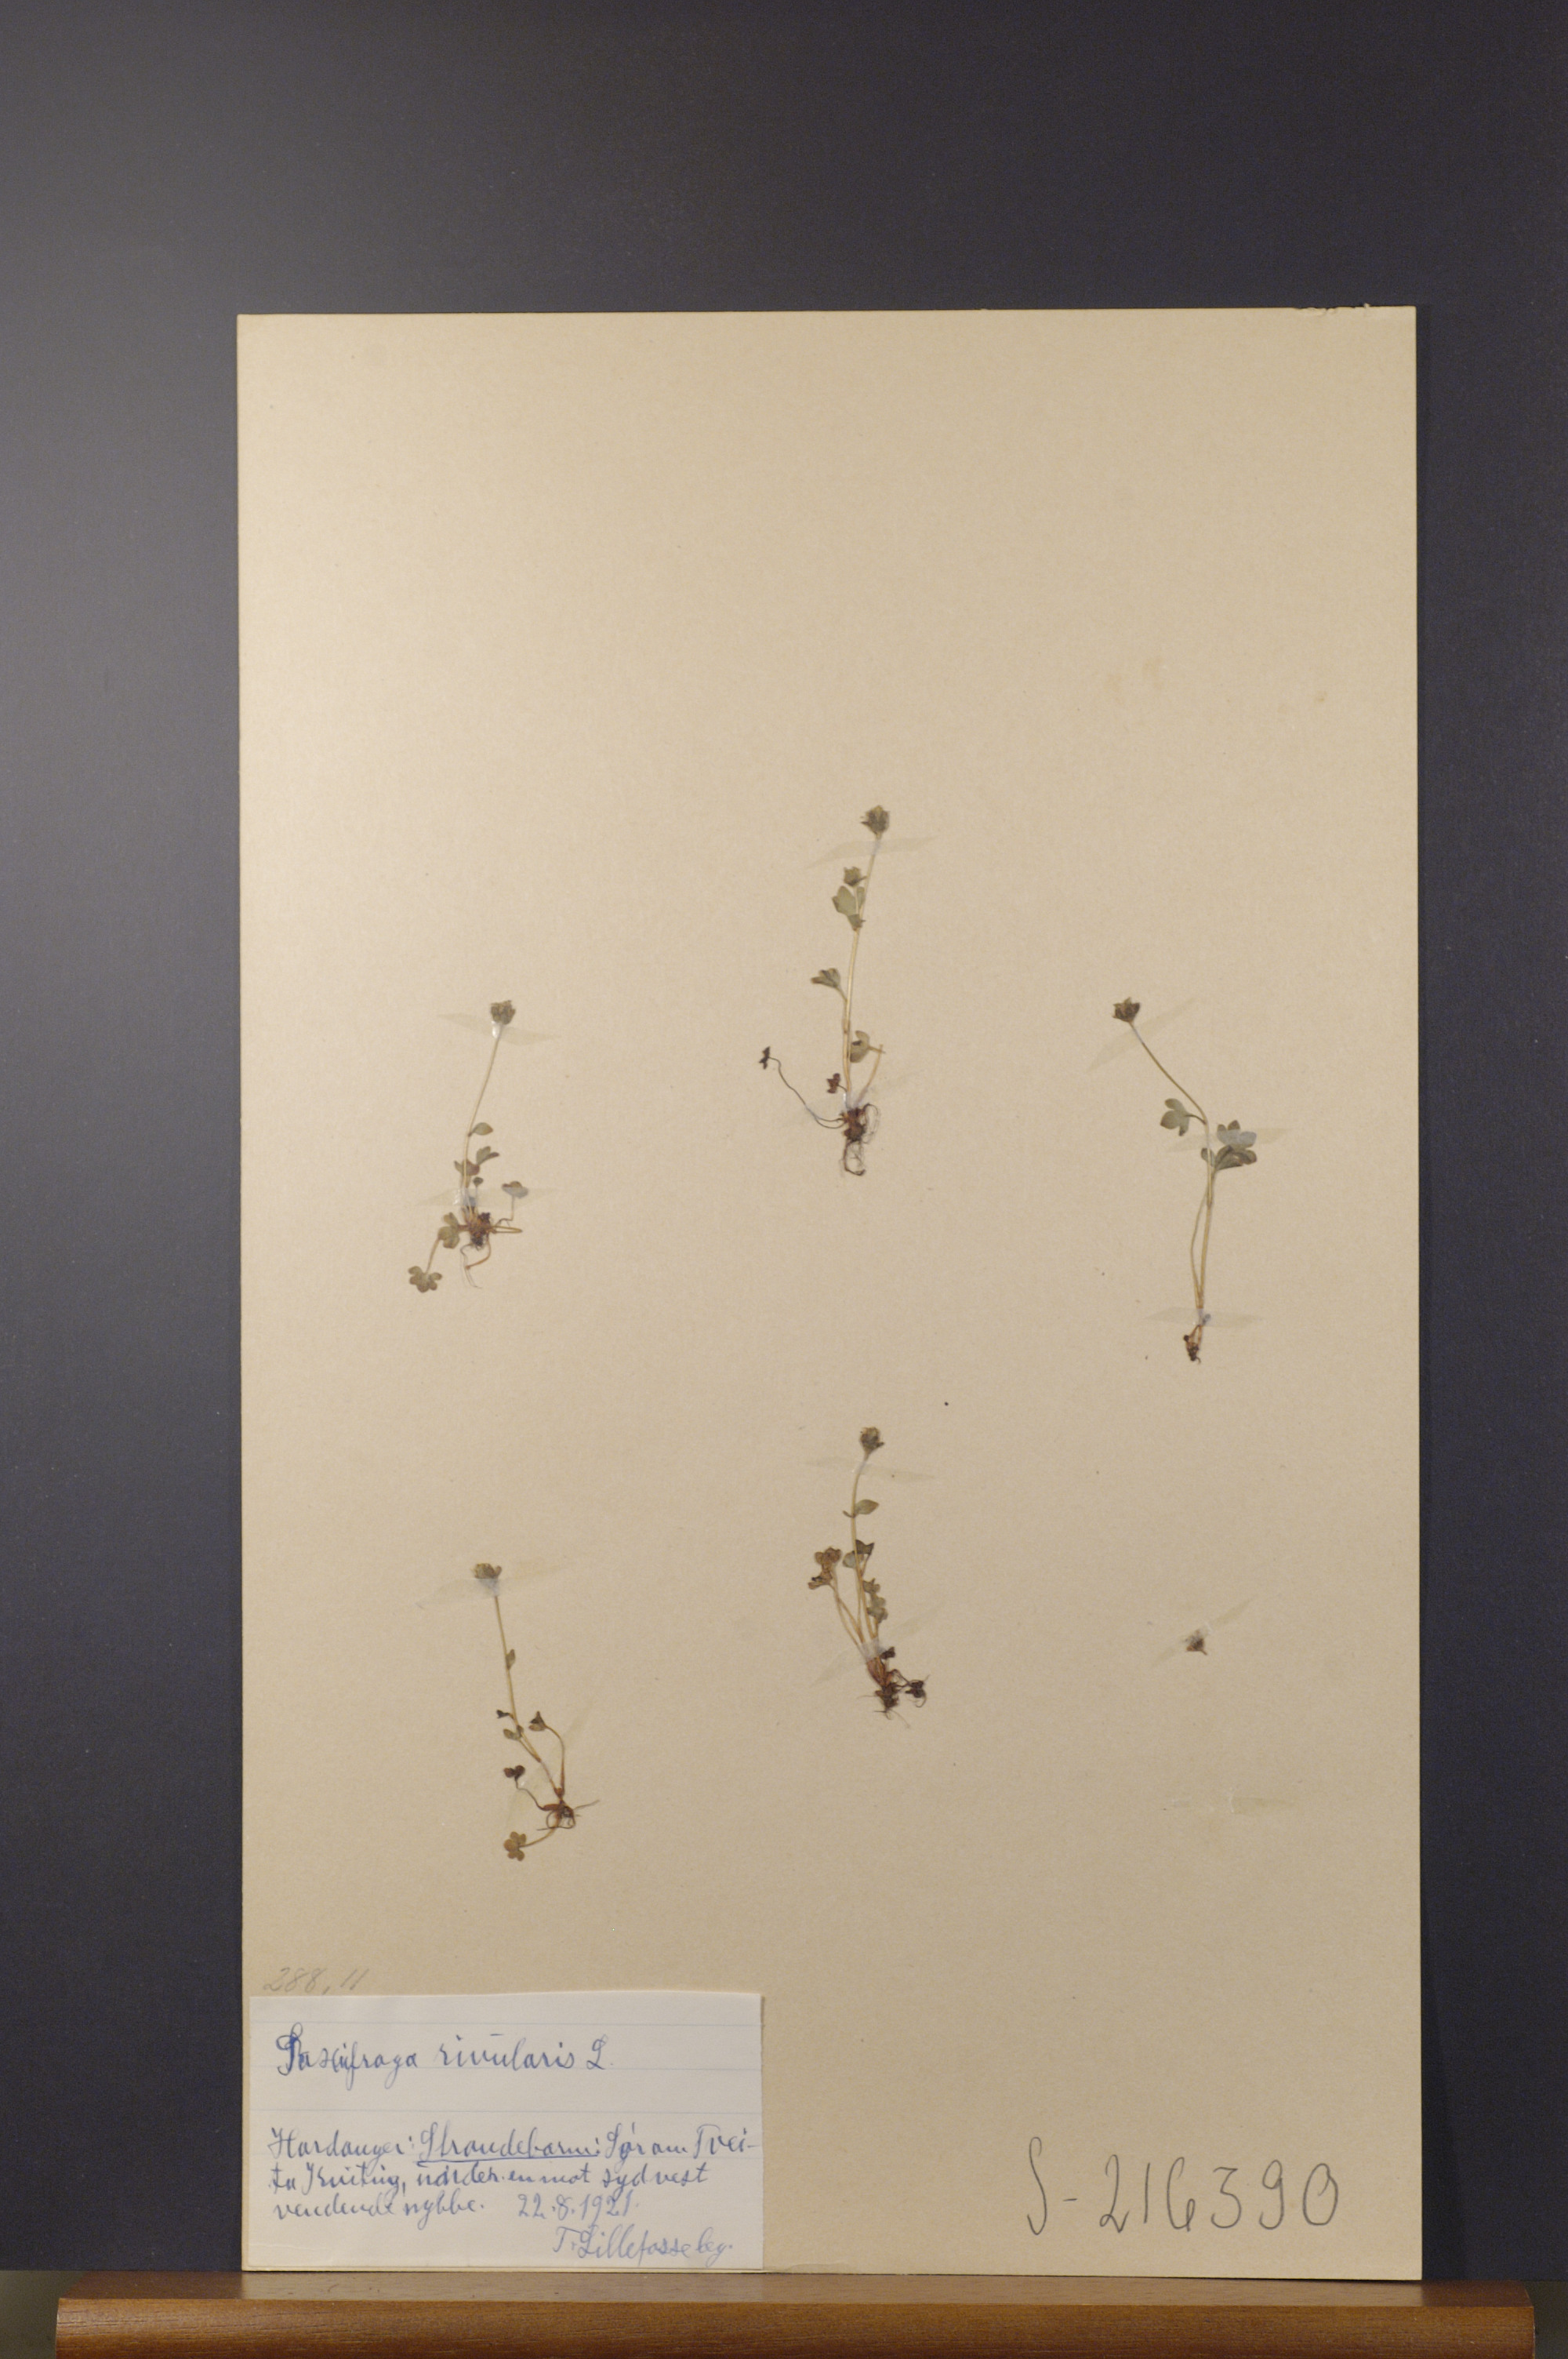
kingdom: Plantae
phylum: Tracheophyta
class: Magnoliopsida
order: Saxifragales
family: Saxifragaceae
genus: Saxifraga
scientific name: Saxifraga rivularis
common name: Highland saxifrage
